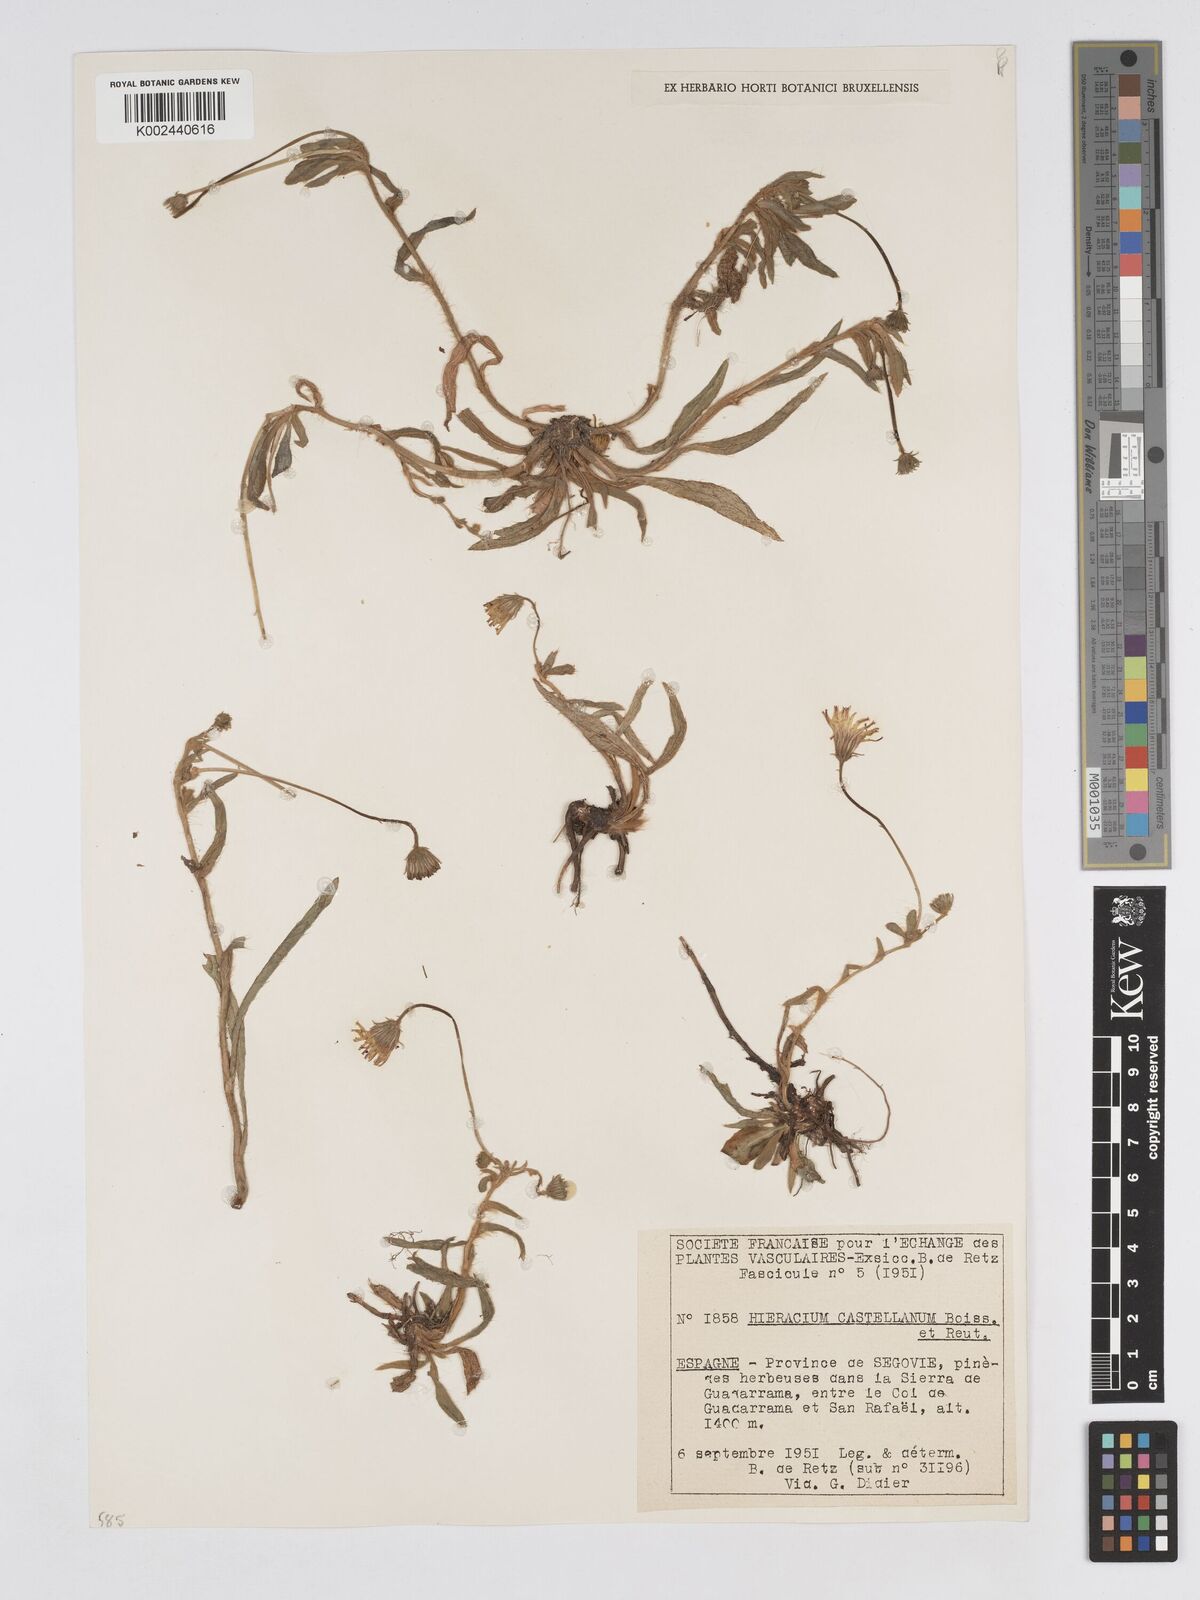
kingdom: Plantae
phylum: Tracheophyta
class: Magnoliopsida
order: Asterales
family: Asteraceae
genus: Pilosella
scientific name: Pilosella castellana
